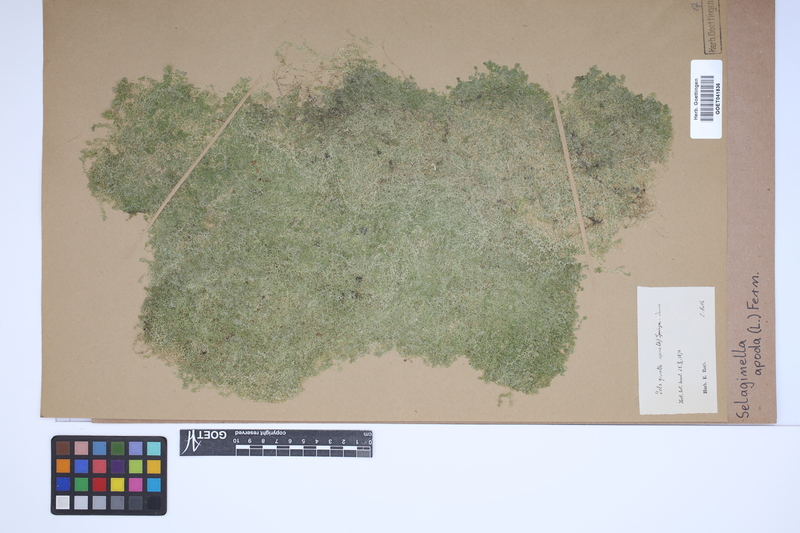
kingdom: Plantae
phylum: Tracheophyta
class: Lycopodiopsida
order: Selaginellales
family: Selaginellaceae
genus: Selaginella
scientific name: Selaginella apoda
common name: Creeping spikemoss
